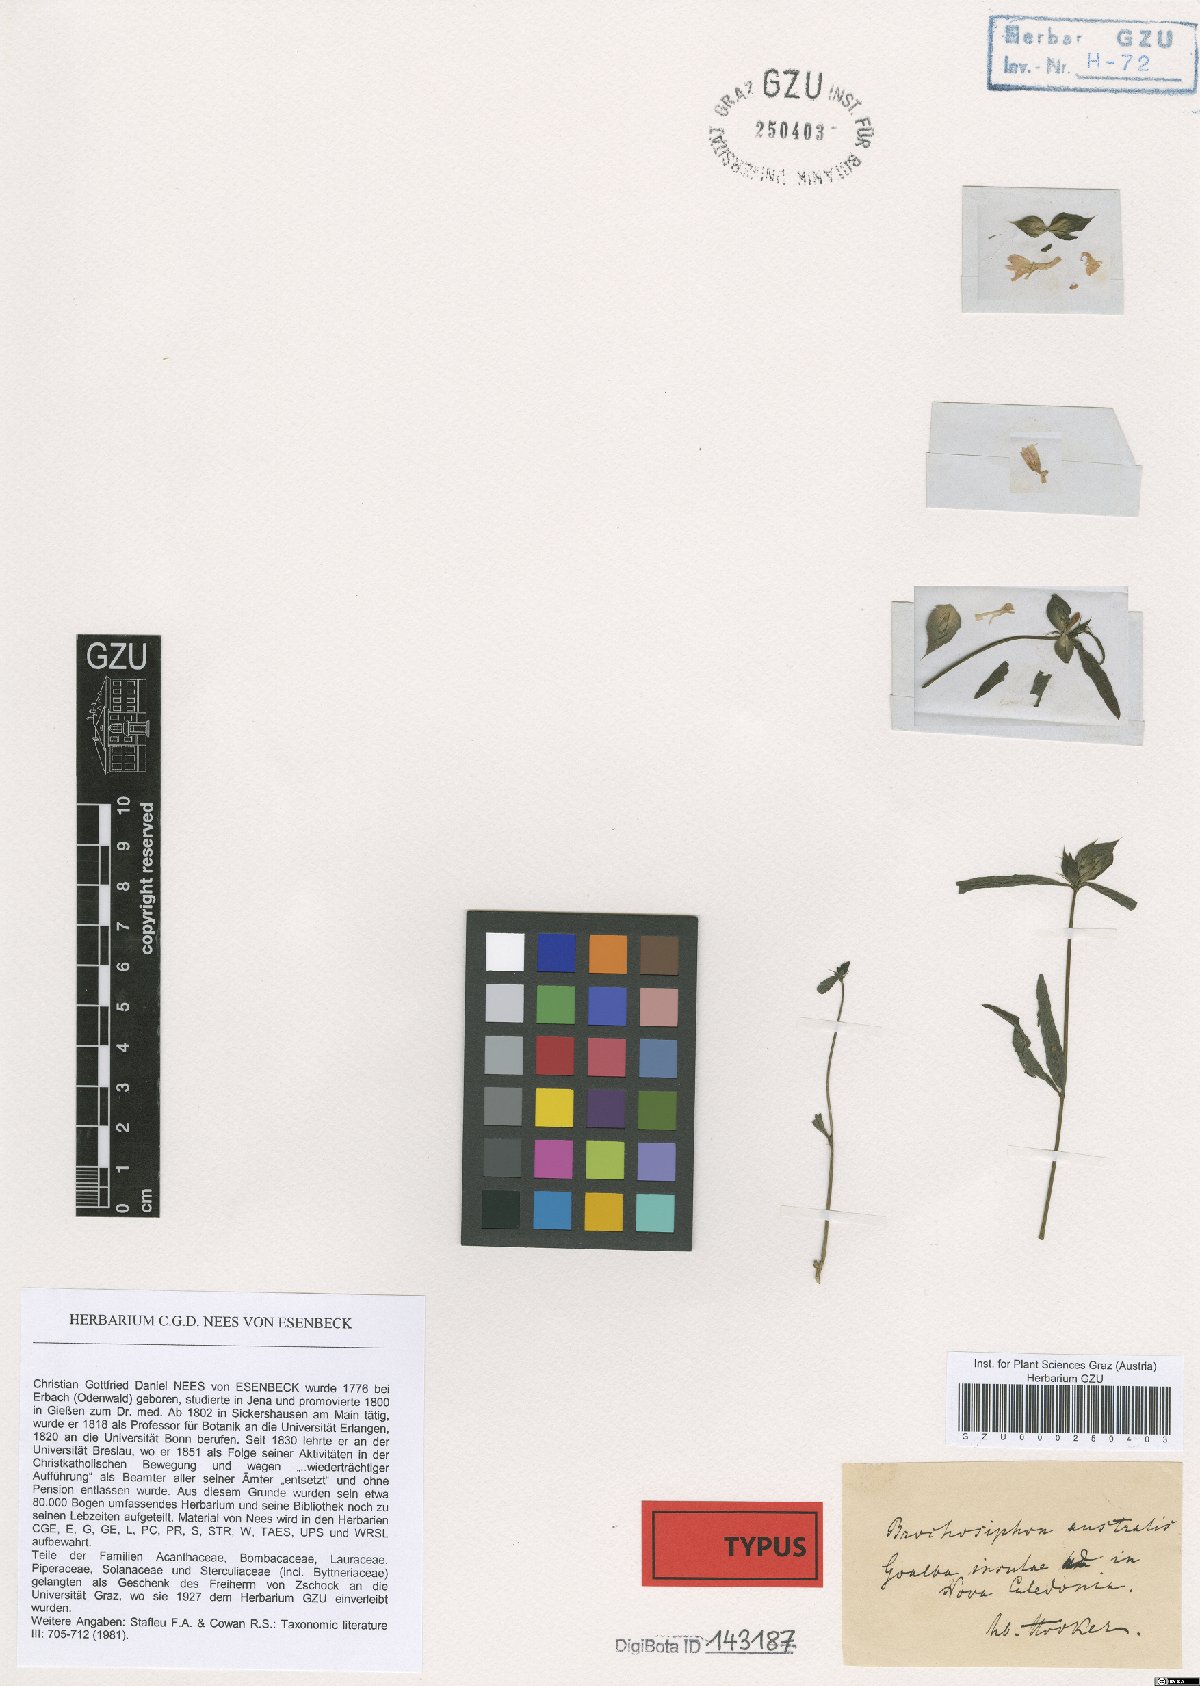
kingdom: Plantae
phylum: Tracheophyta
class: Magnoliopsida
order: Lamiales
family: Acanthaceae
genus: Dicliptera
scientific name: Dicliptera australis
